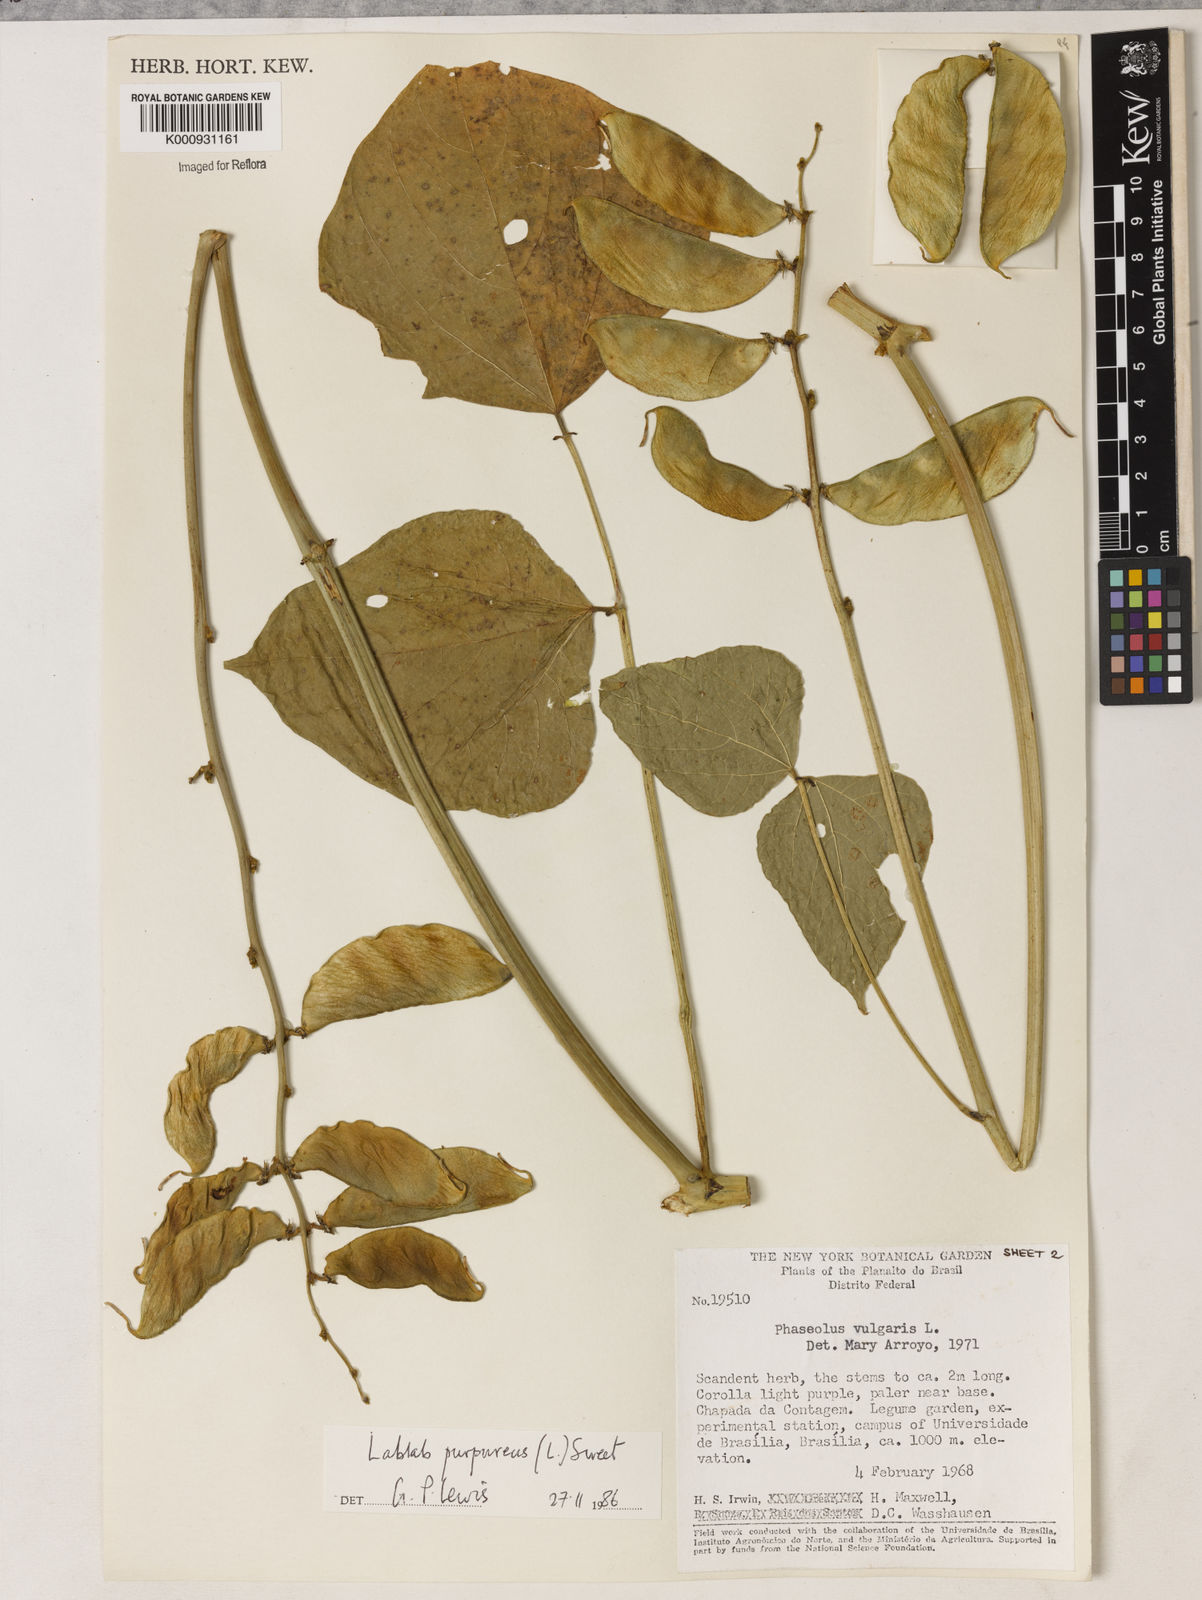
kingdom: Plantae
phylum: Tracheophyta
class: Magnoliopsida
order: Fabales
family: Fabaceae
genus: Lablab
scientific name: Lablab purpureus
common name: Lablab-bean
